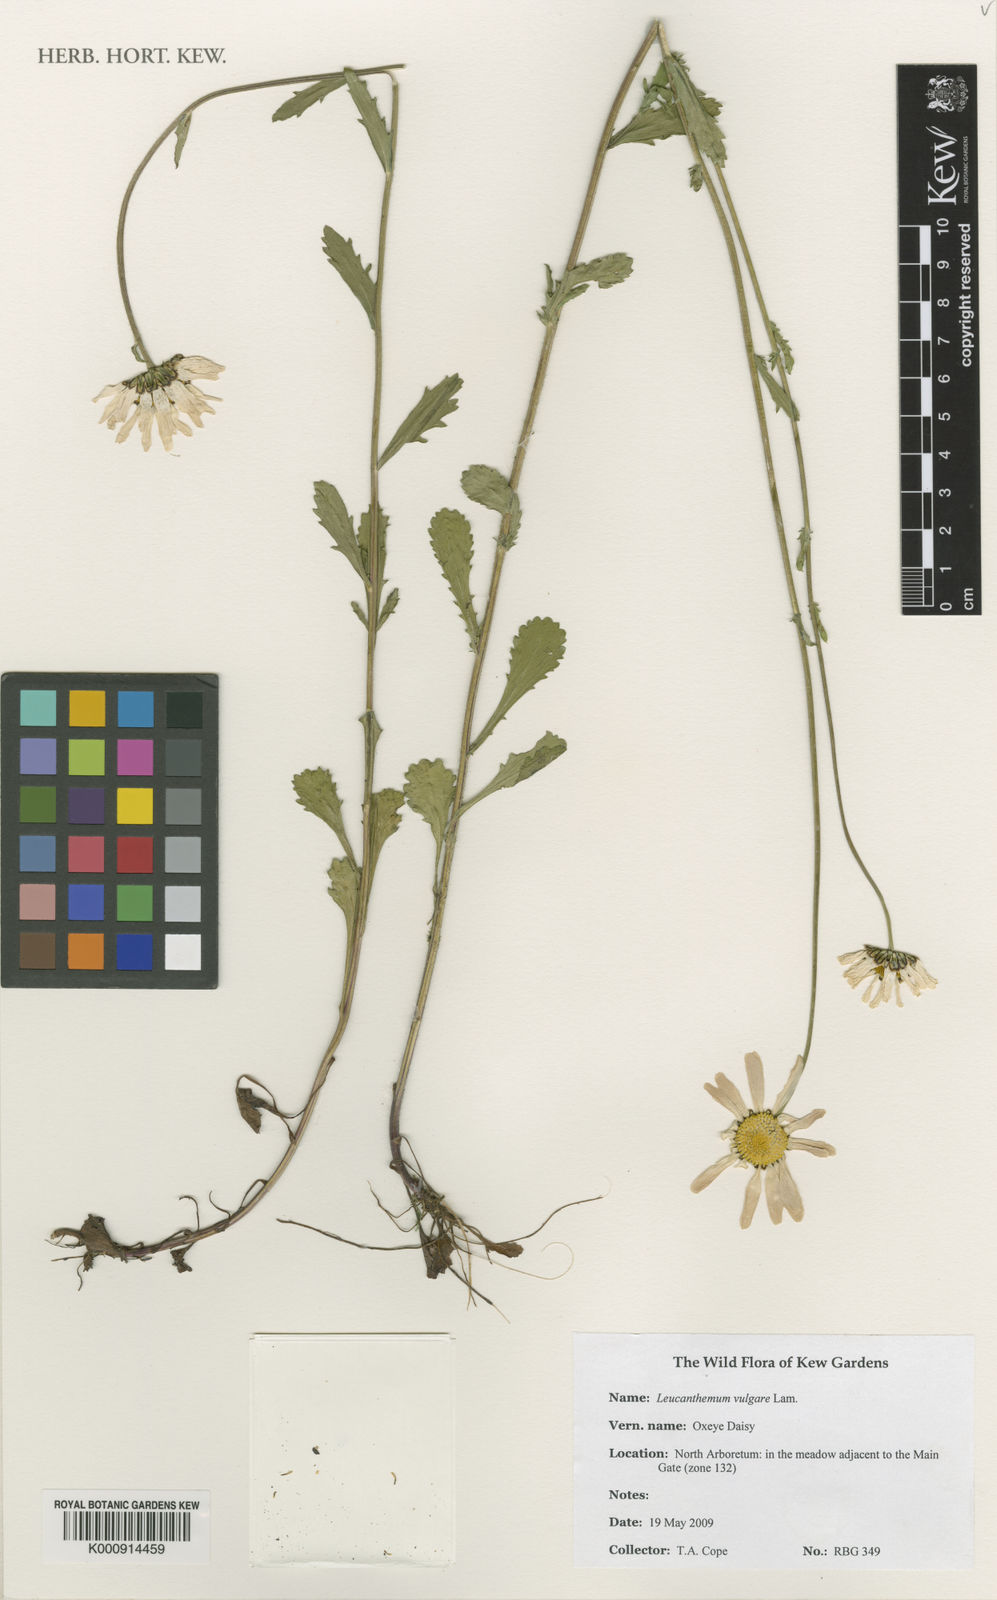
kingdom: Plantae
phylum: Tracheophyta
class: Magnoliopsida
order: Asterales
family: Asteraceae
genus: Leucanthemum
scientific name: Leucanthemum vulgare
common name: Oxeye daisy
